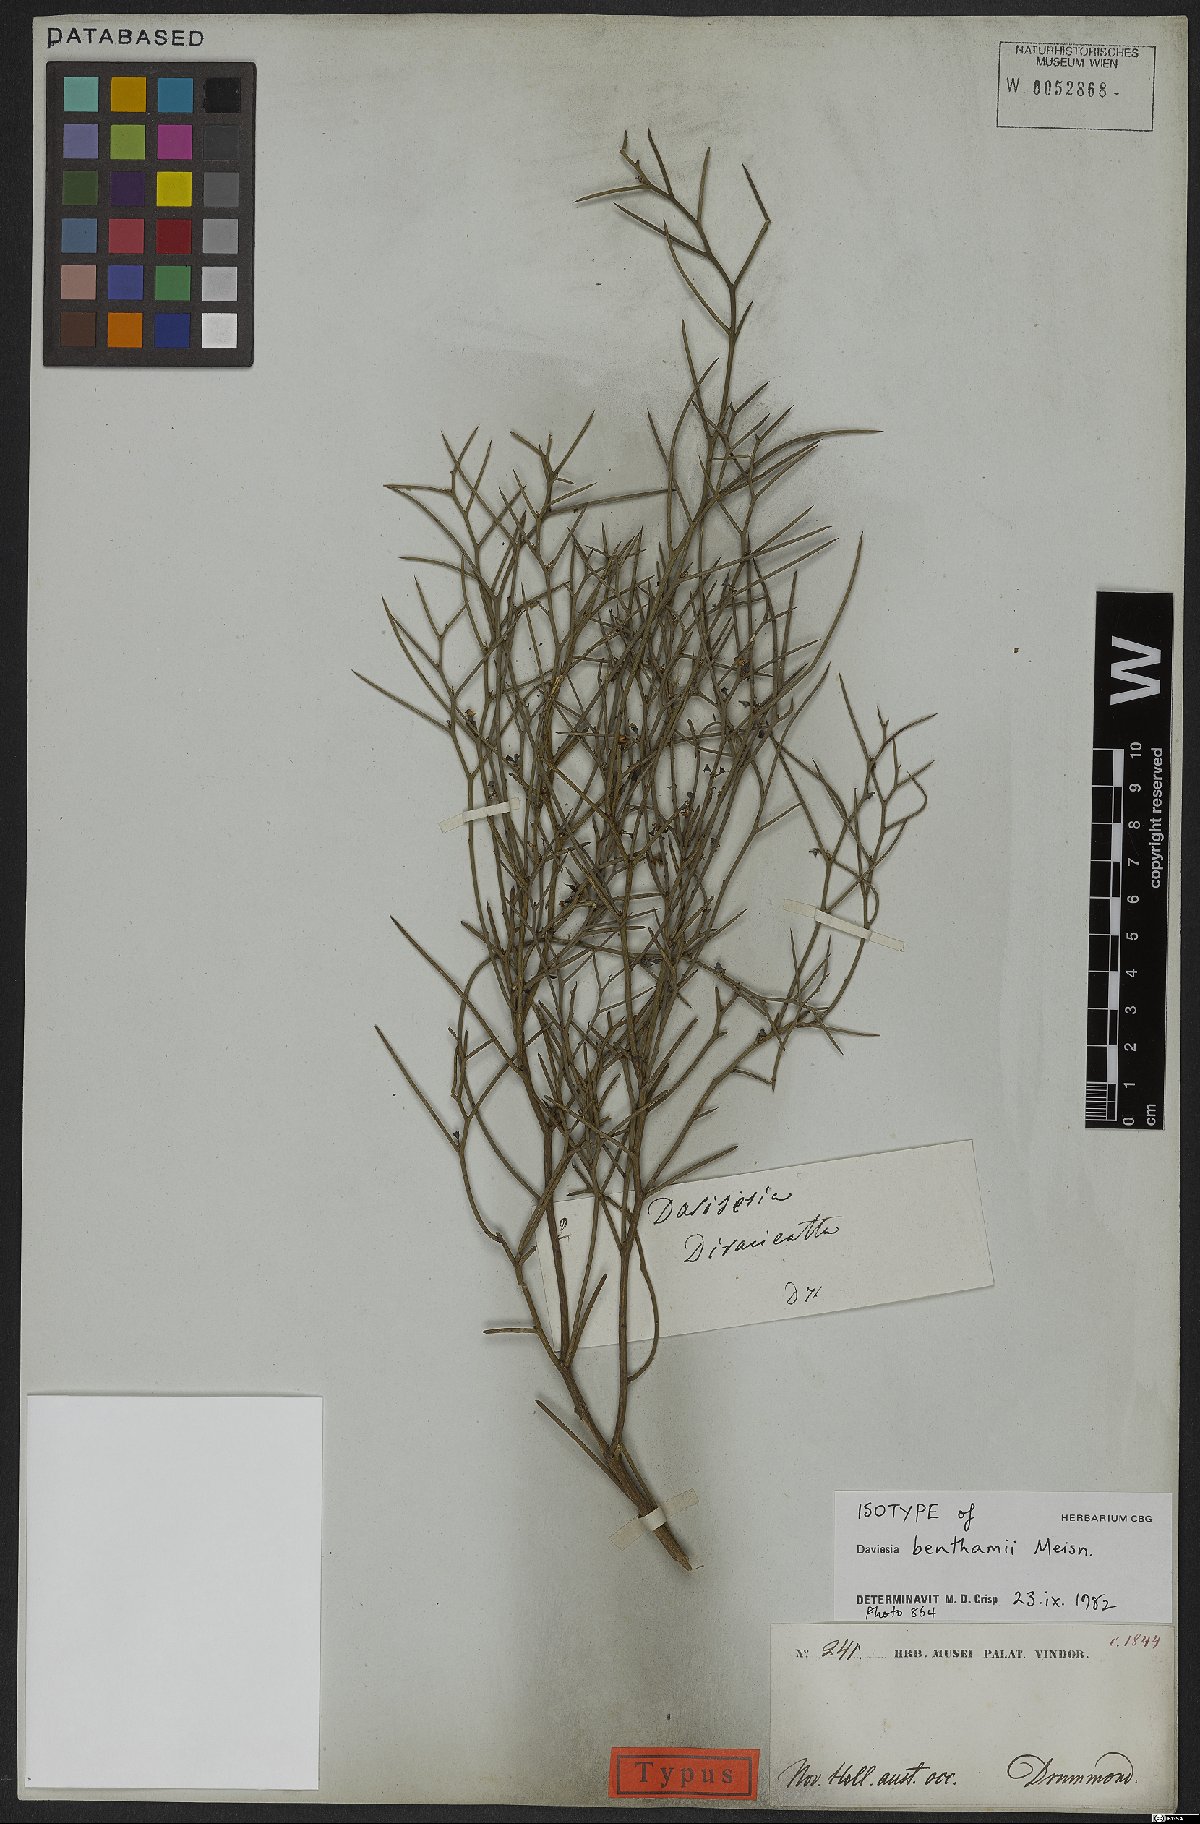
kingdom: Plantae
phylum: Tracheophyta
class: Magnoliopsida
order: Fabales
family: Fabaceae
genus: Daviesia
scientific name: Daviesia benthamii
